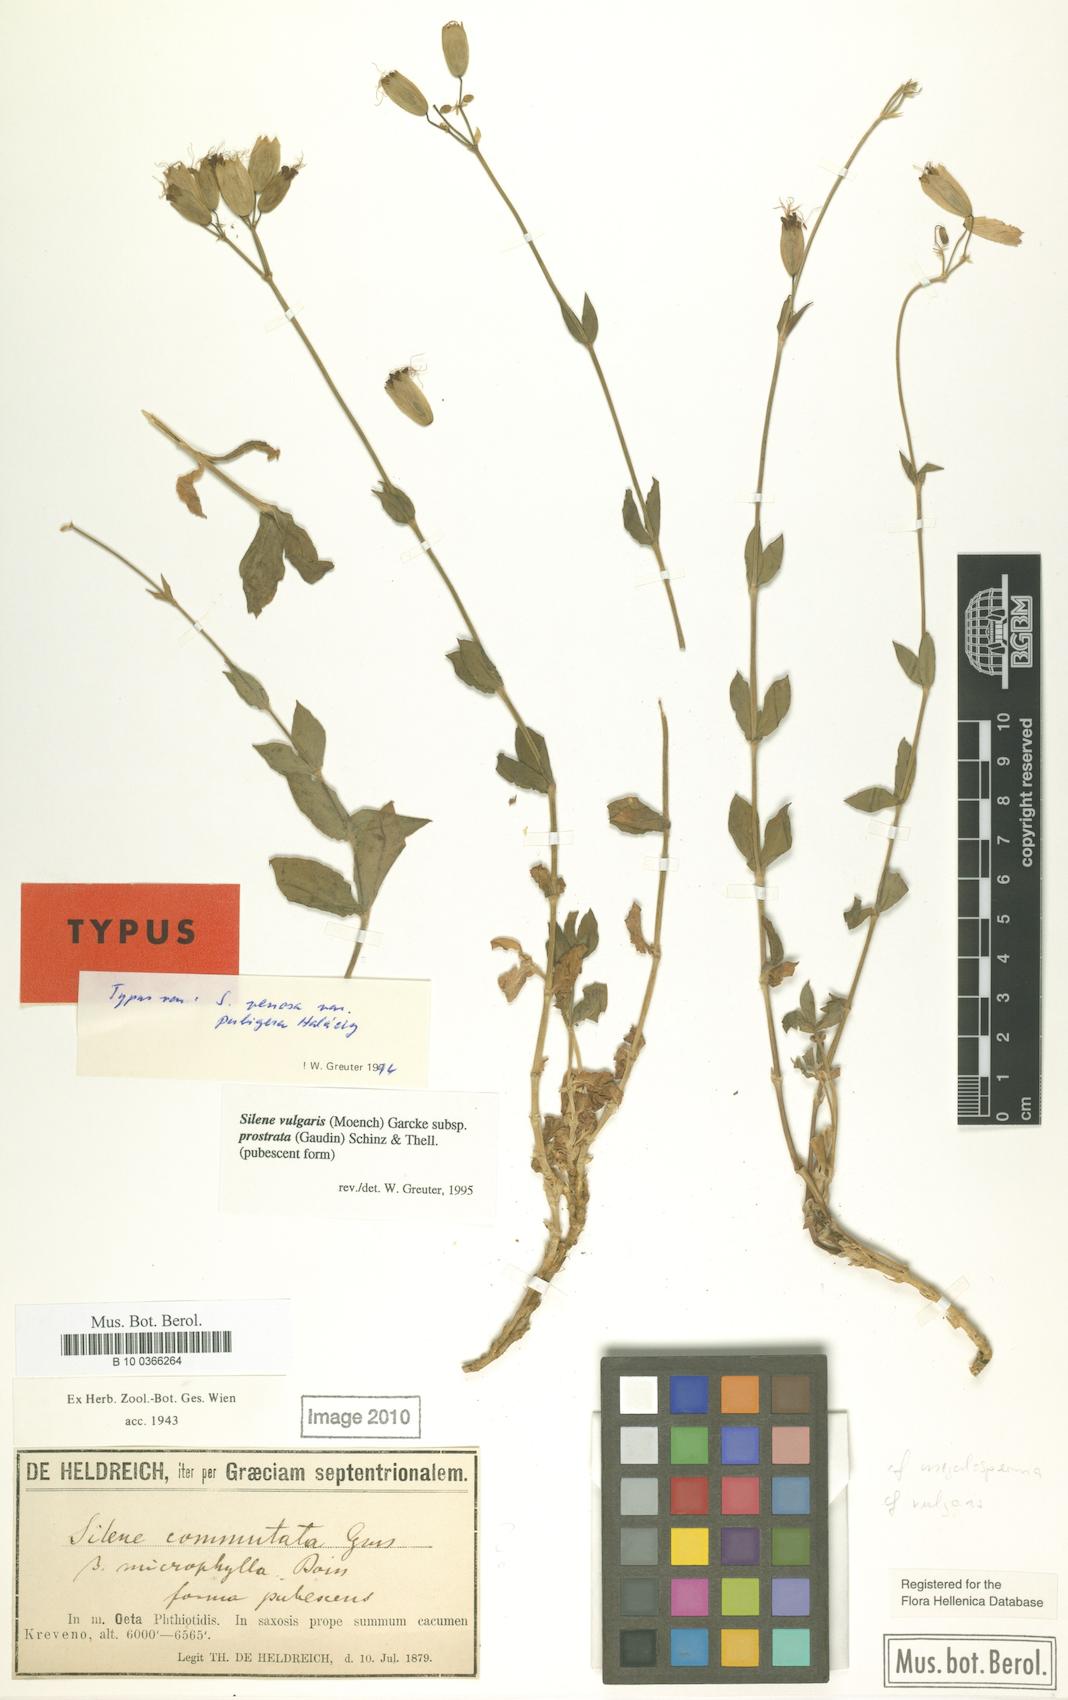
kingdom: Plantae
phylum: Tracheophyta
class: Magnoliopsida
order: Caryophyllales
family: Caryophyllaceae
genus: Silene
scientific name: Silene glareosa
